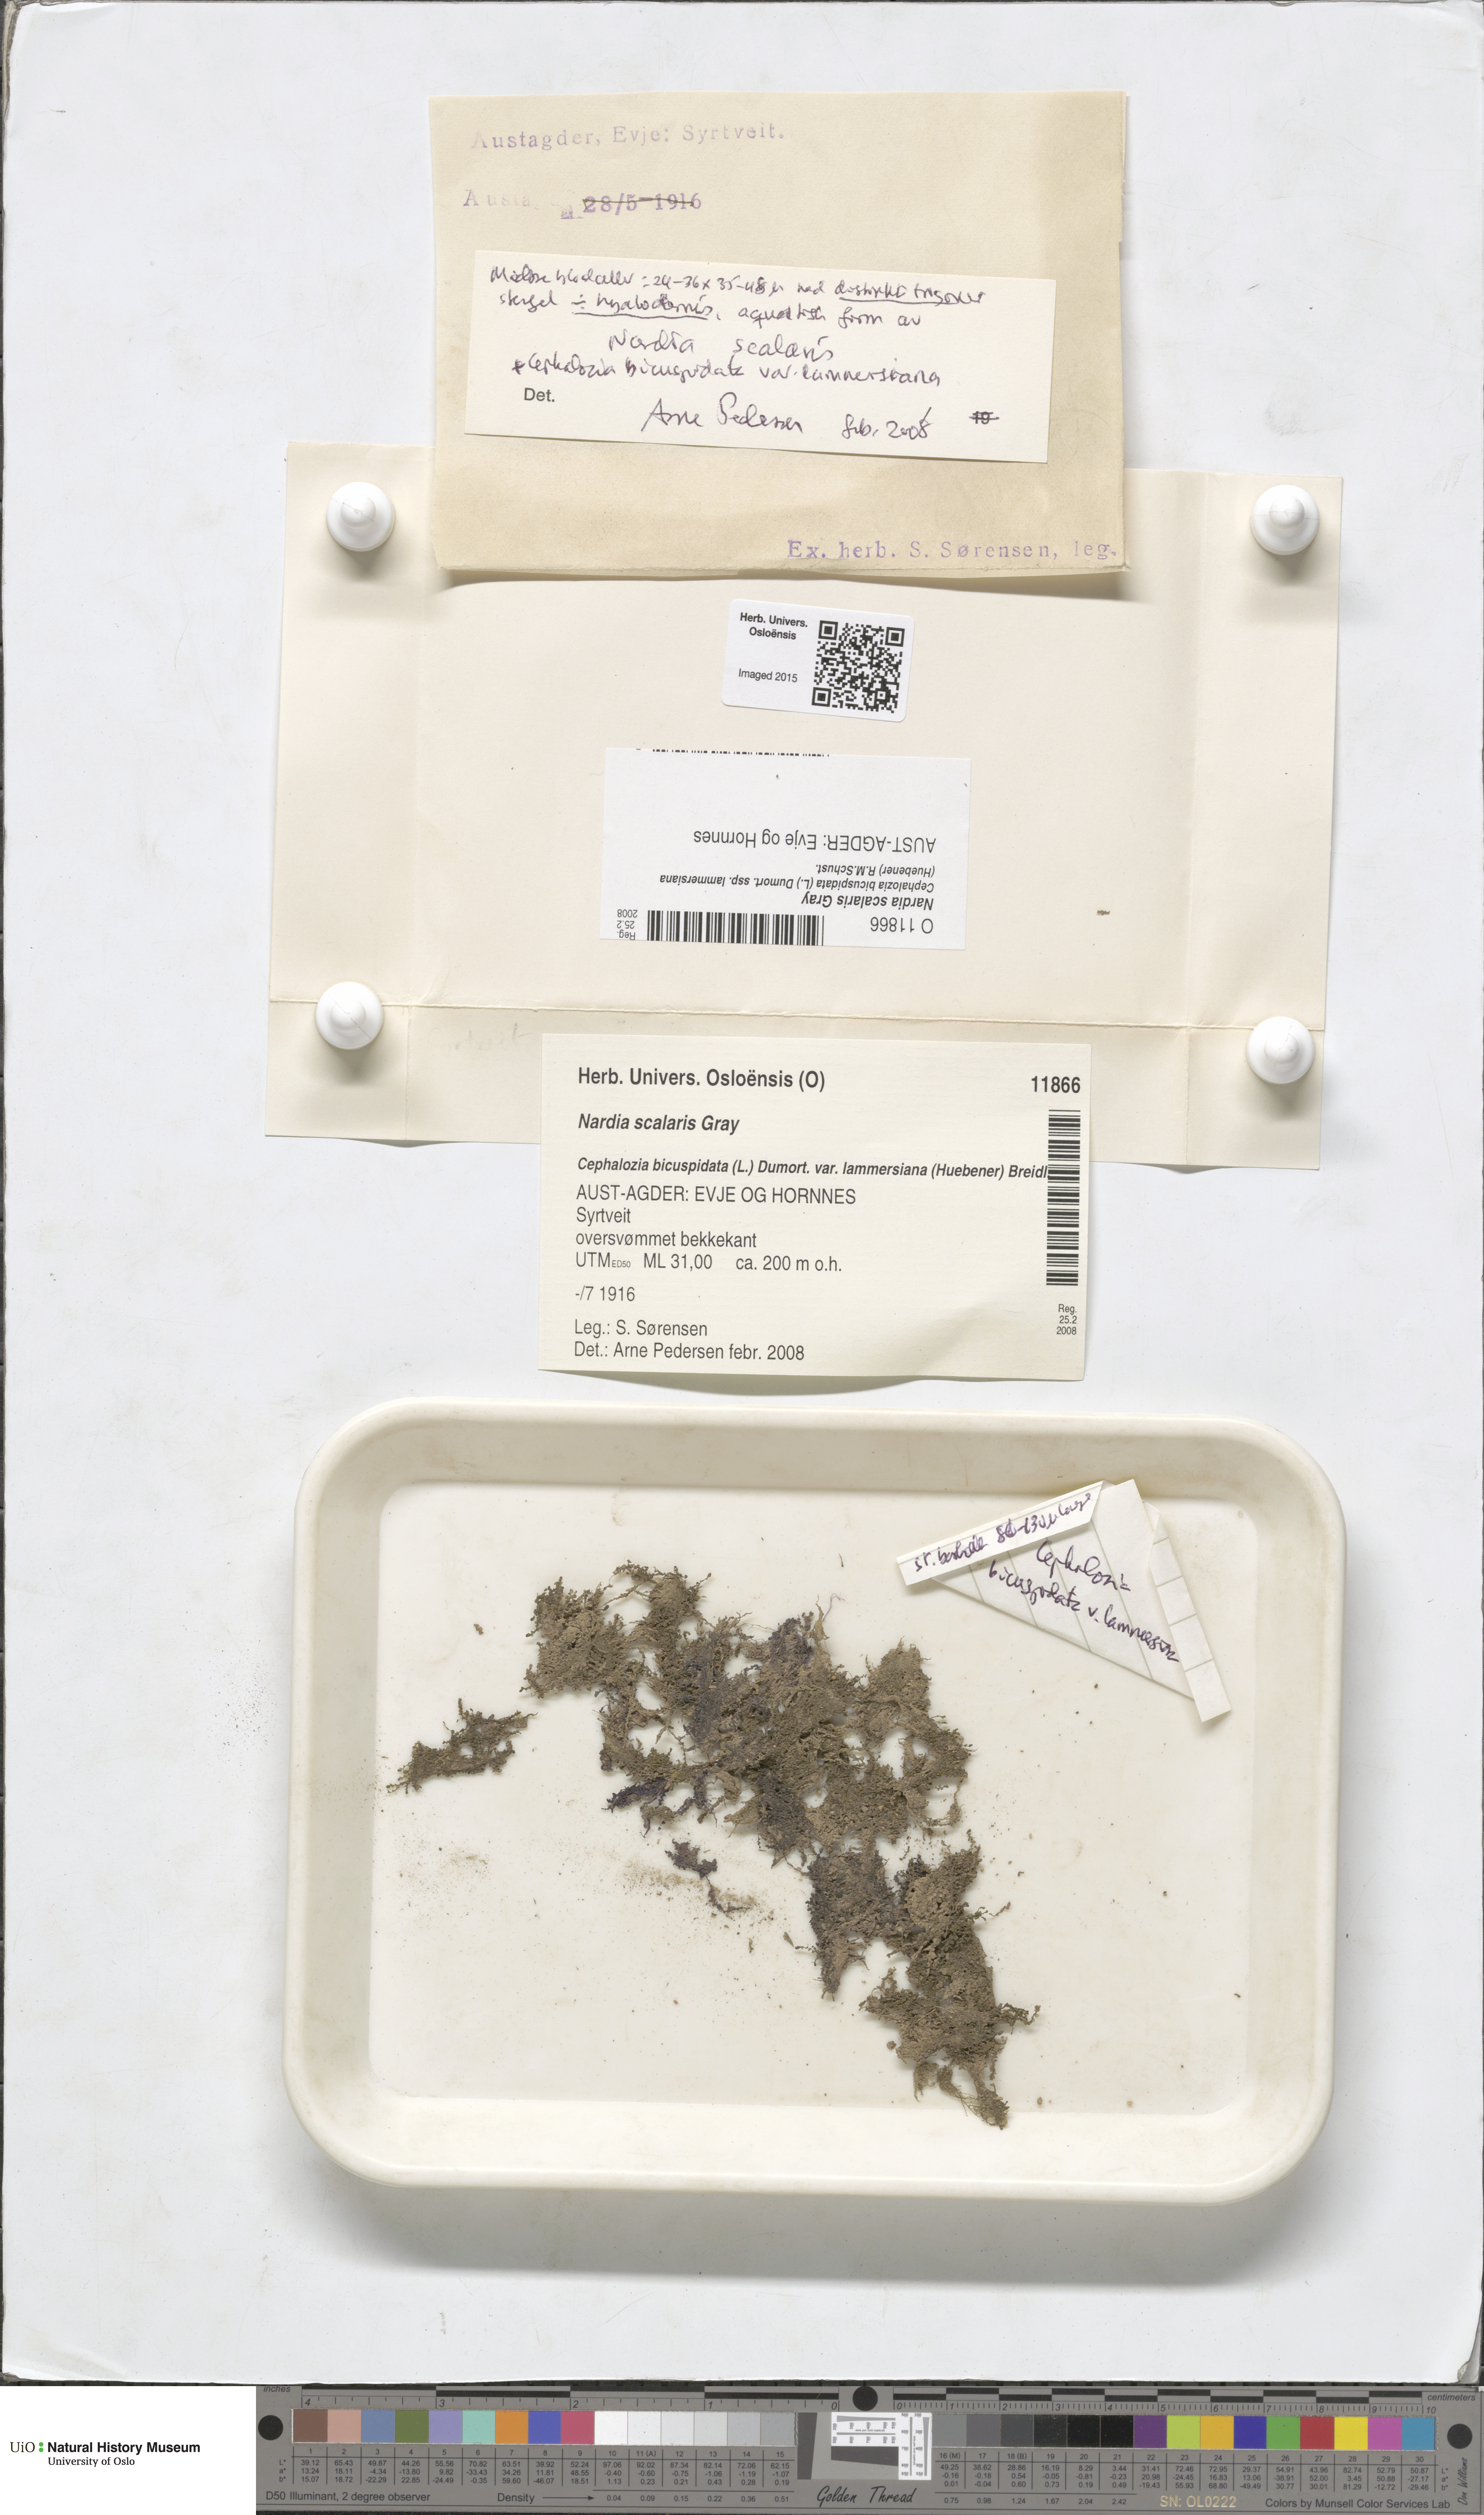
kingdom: Plantae
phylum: Marchantiophyta
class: Jungermanniopsida
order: Jungermanniales
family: Gymnomitriaceae
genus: Nardia
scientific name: Nardia scalaris
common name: Ladder flapwort
